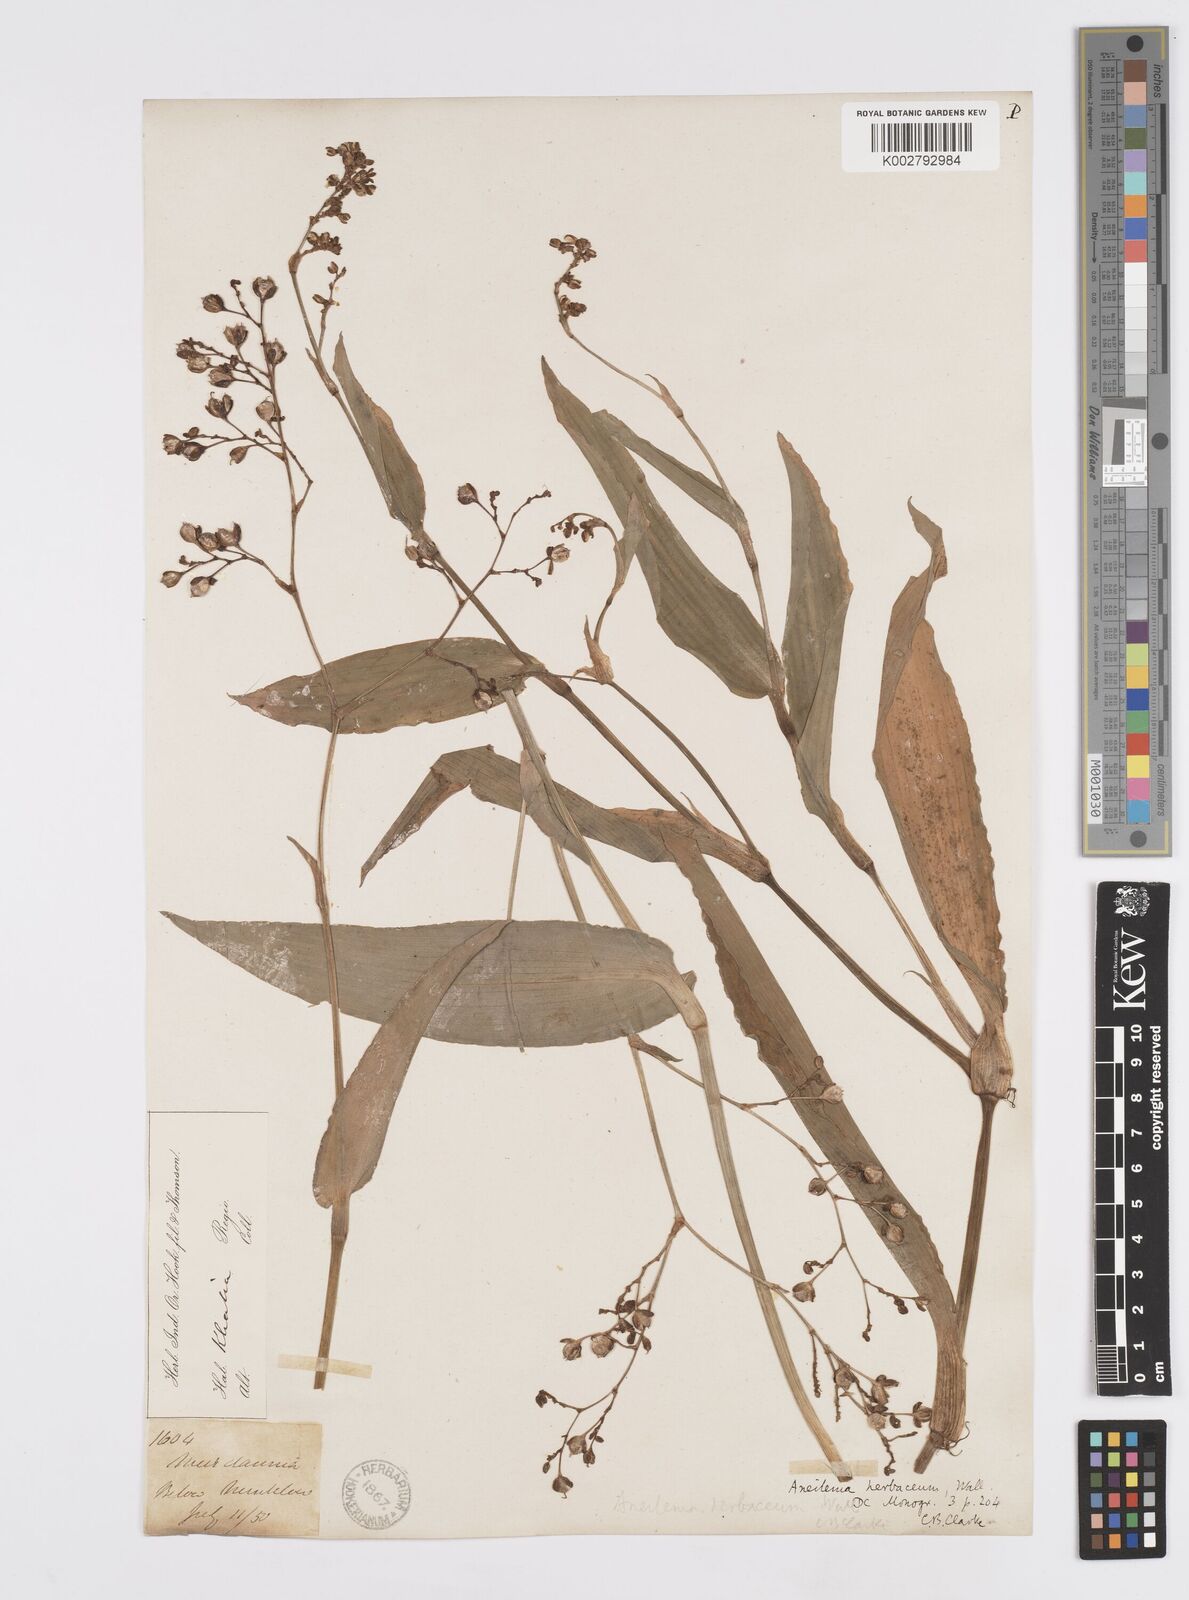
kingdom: Plantae
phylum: Tracheophyta
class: Liliopsida
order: Commelinales
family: Commelinaceae
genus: Murdannia
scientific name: Murdannia
